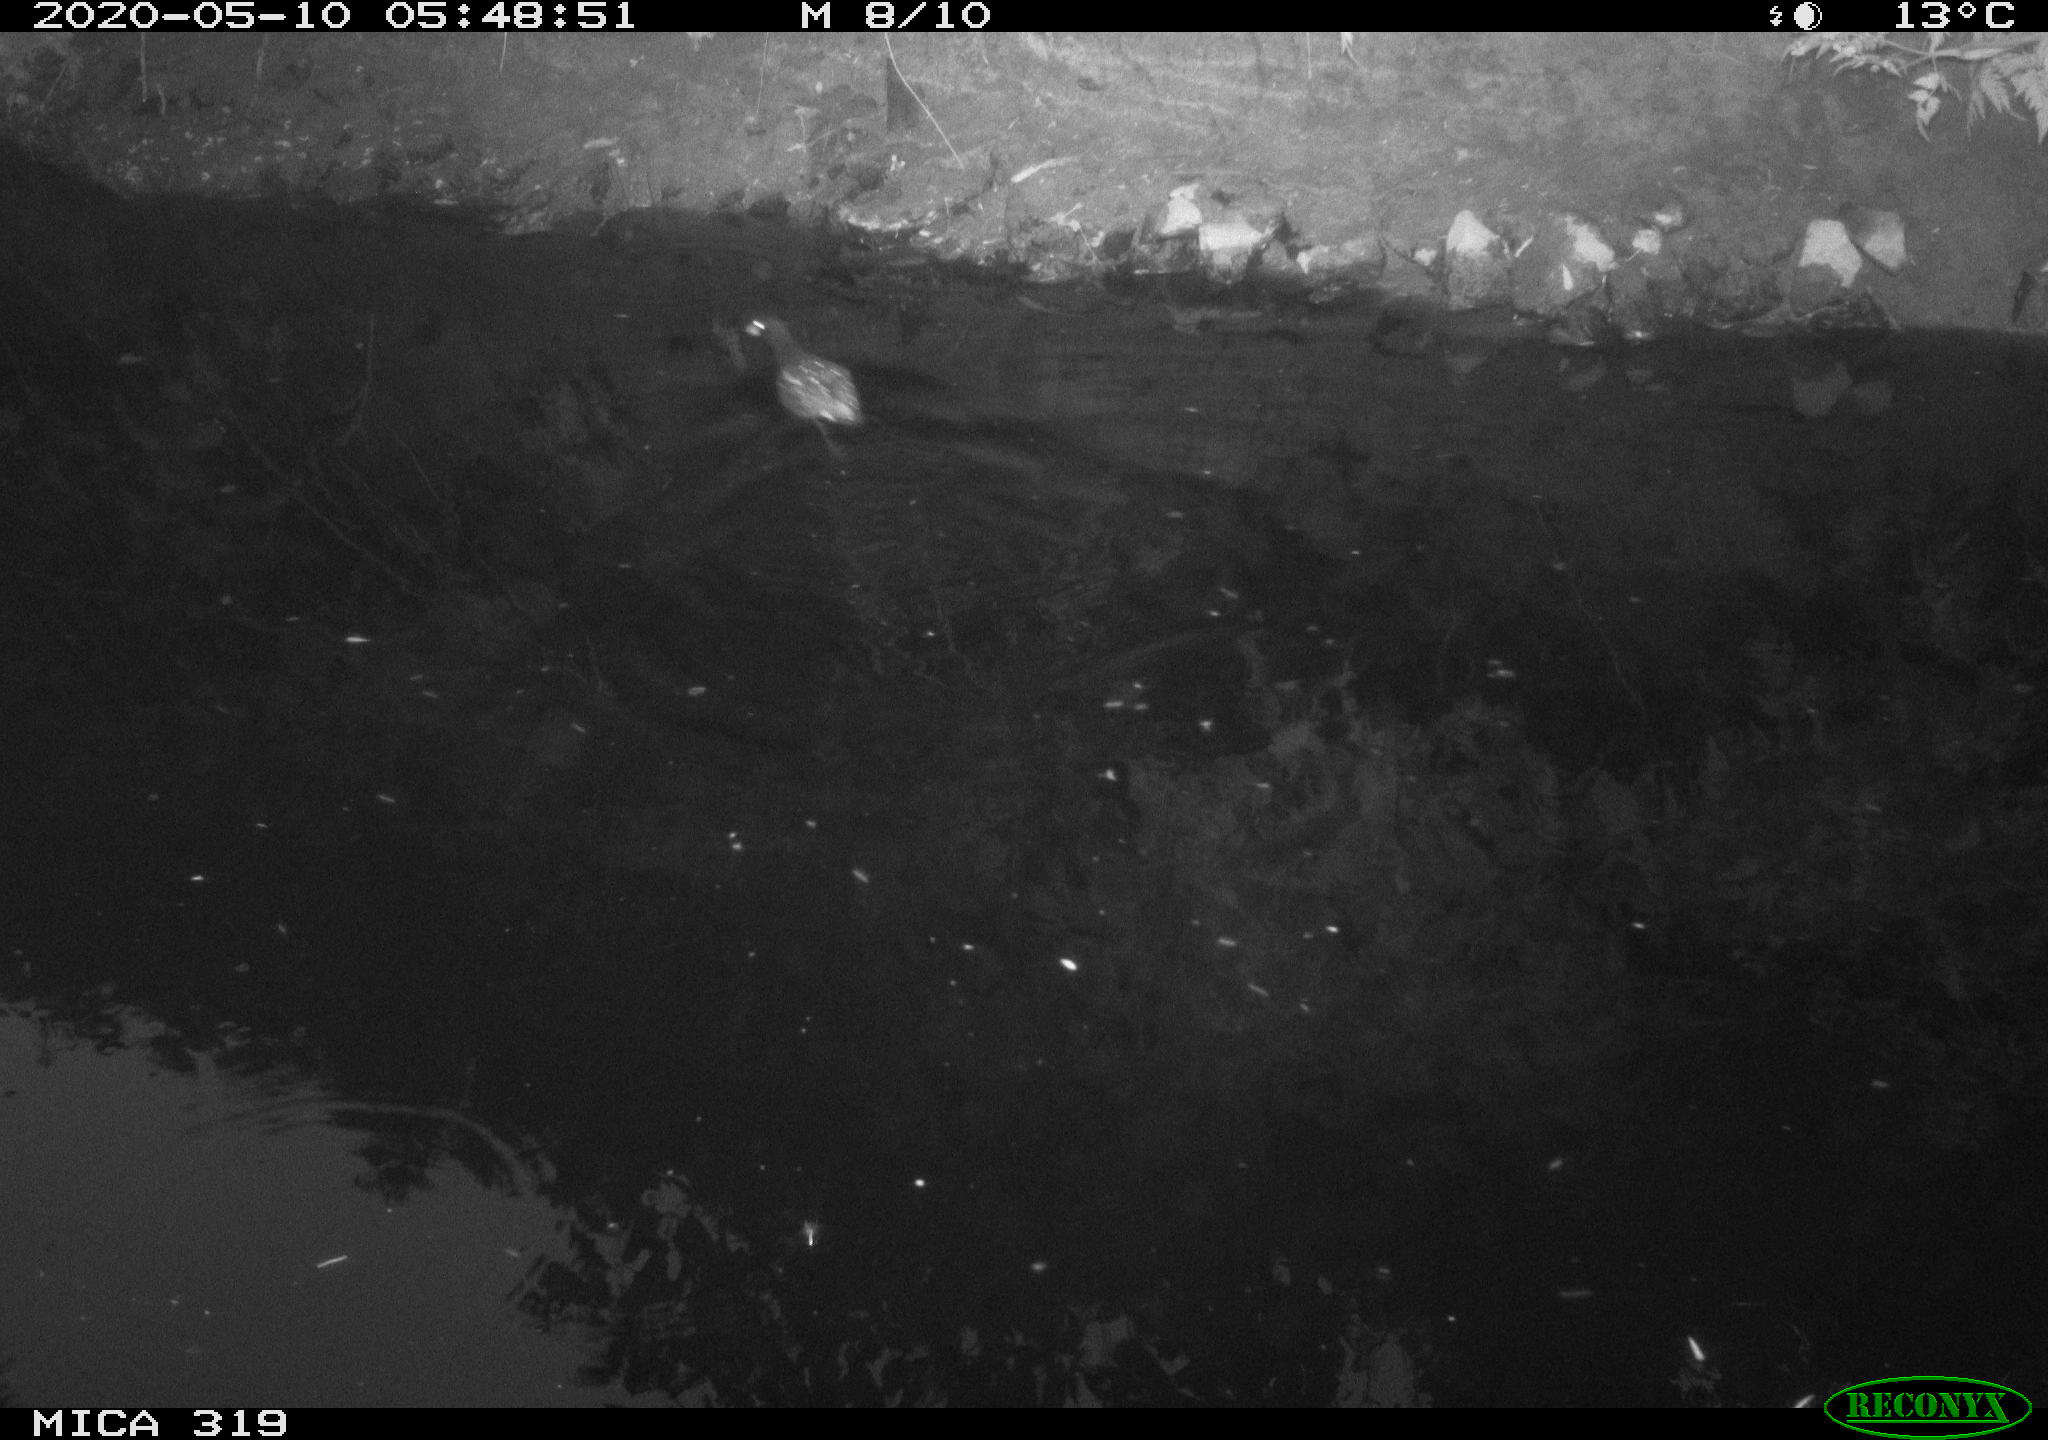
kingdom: Animalia
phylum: Chordata
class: Aves
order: Gruiformes
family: Rallidae
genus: Gallinula
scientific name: Gallinula chloropus
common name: Common moorhen
